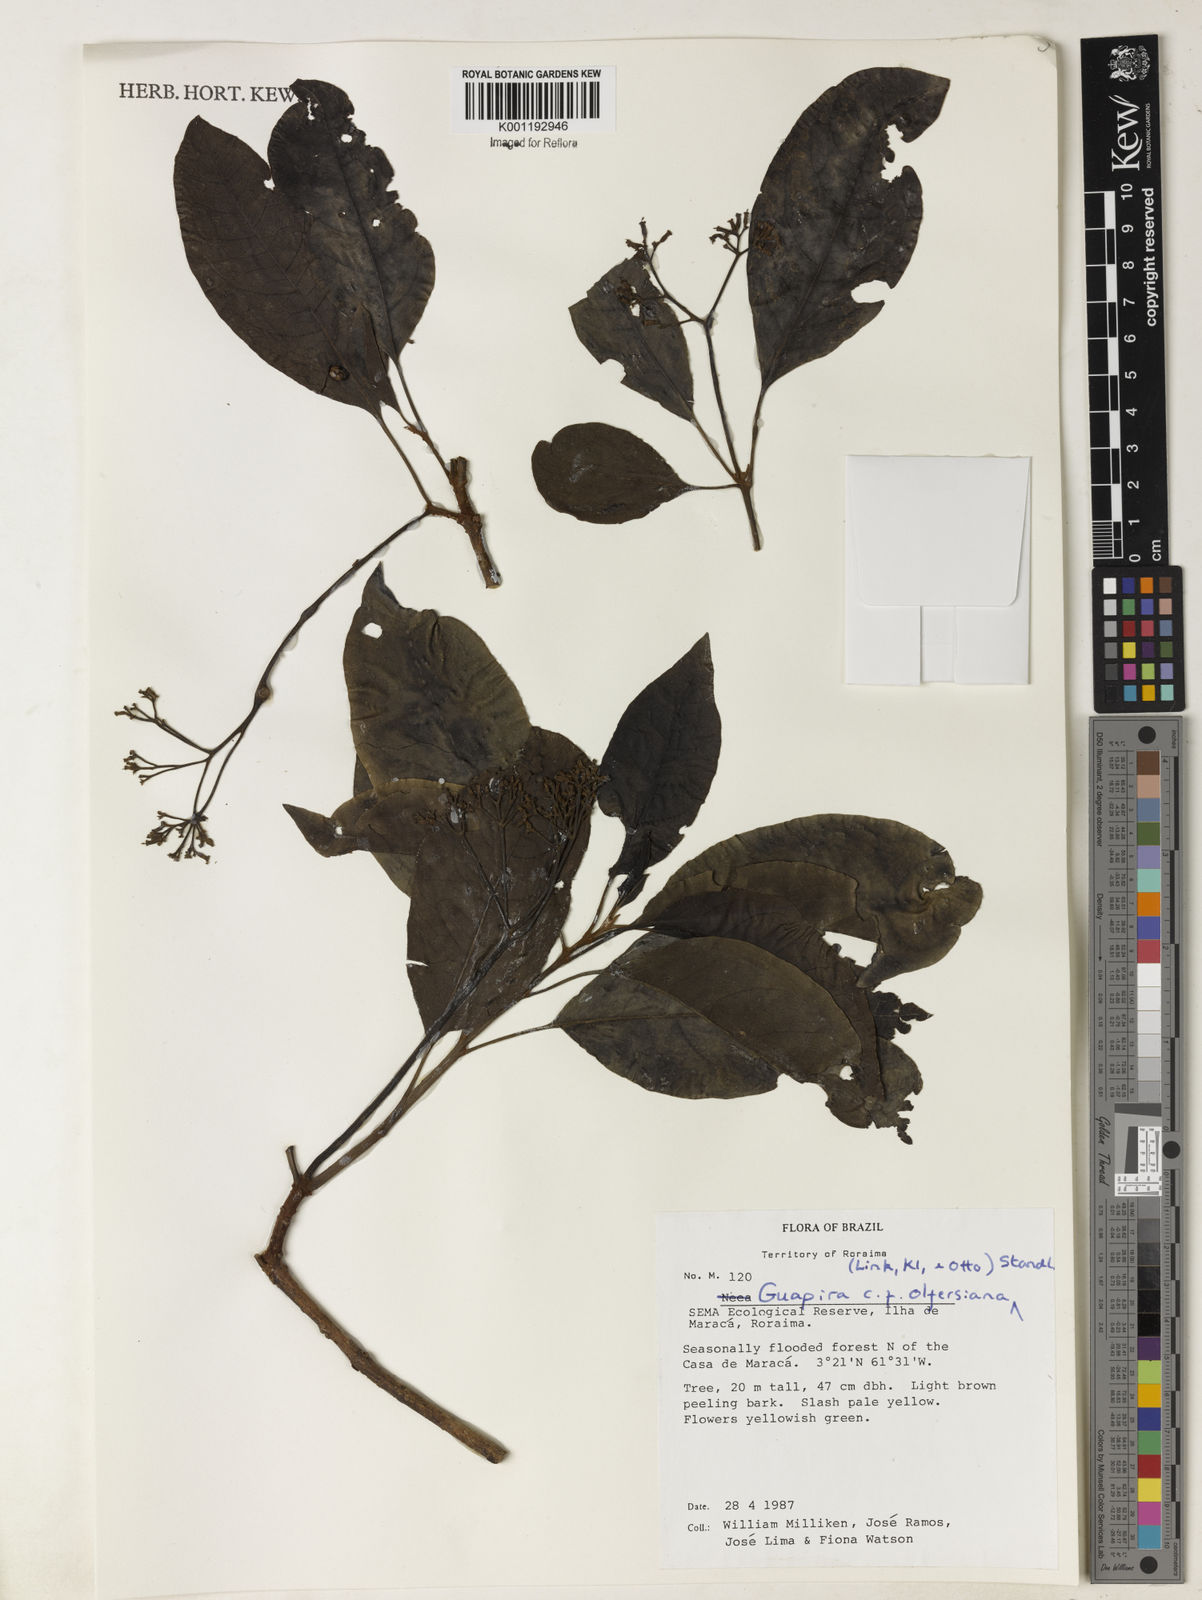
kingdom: Plantae
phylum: Tracheophyta
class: Magnoliopsida
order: Caryophyllales
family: Nyctaginaceae
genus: Guapira
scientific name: Guapira
